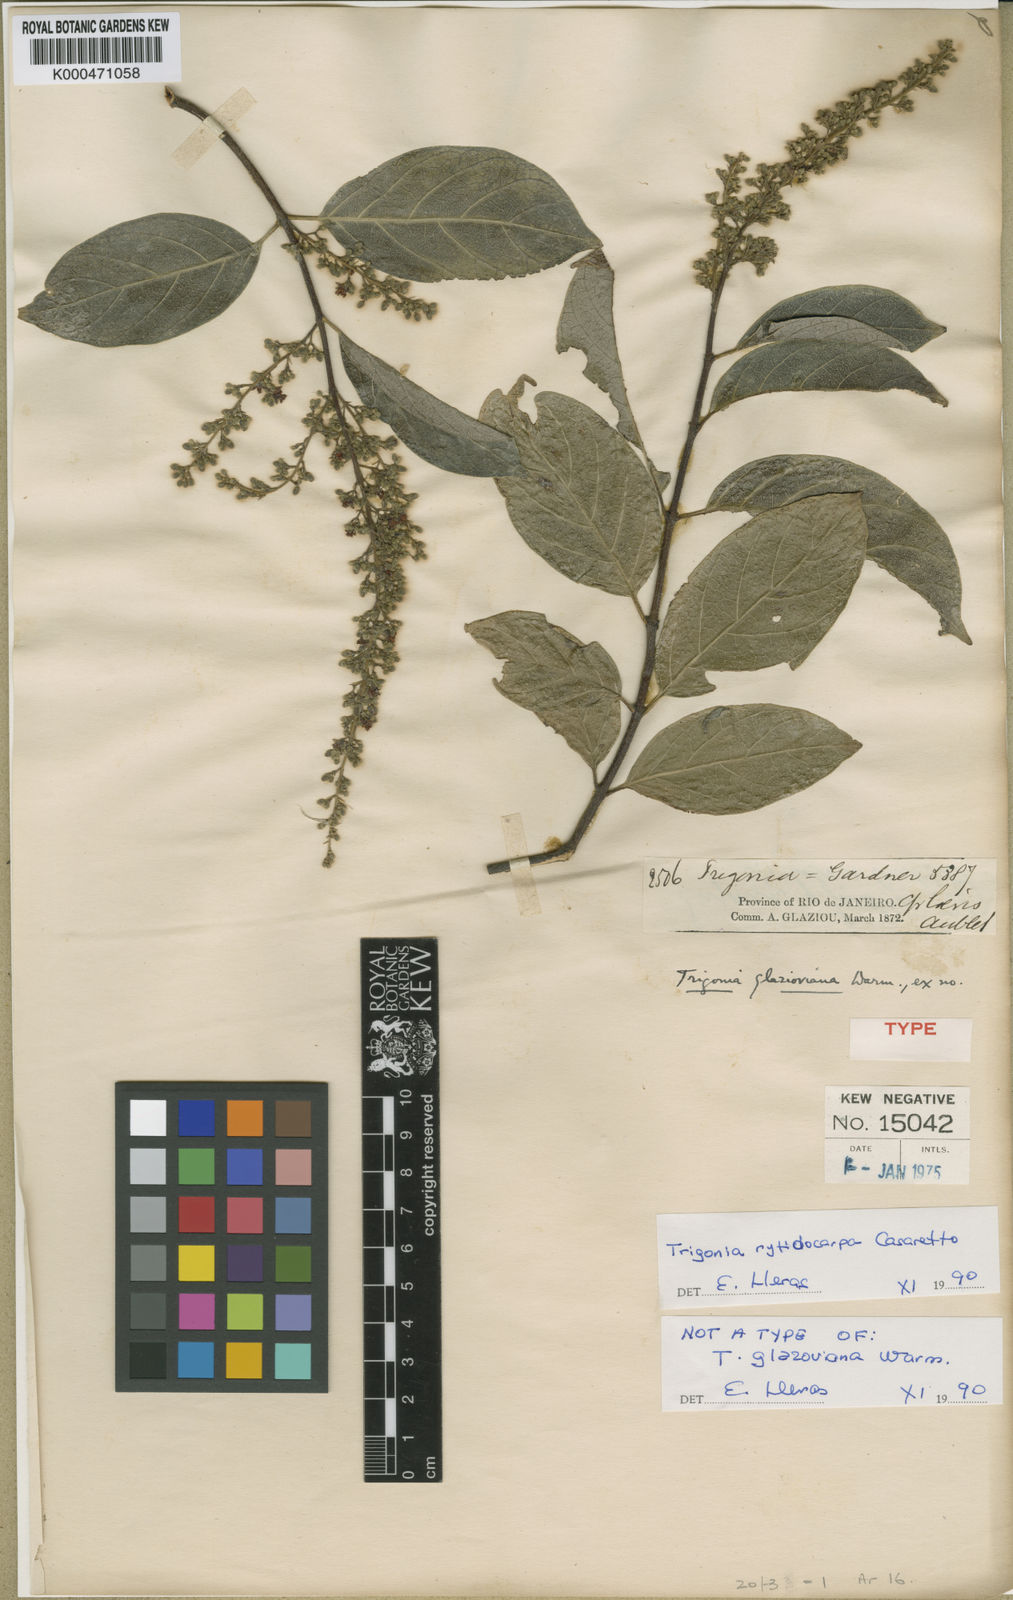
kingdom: Plantae
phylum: Tracheophyta
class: Magnoliopsida
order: Malpighiales
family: Trigoniaceae
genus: Trigonia
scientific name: Trigonia rytidocarpa
